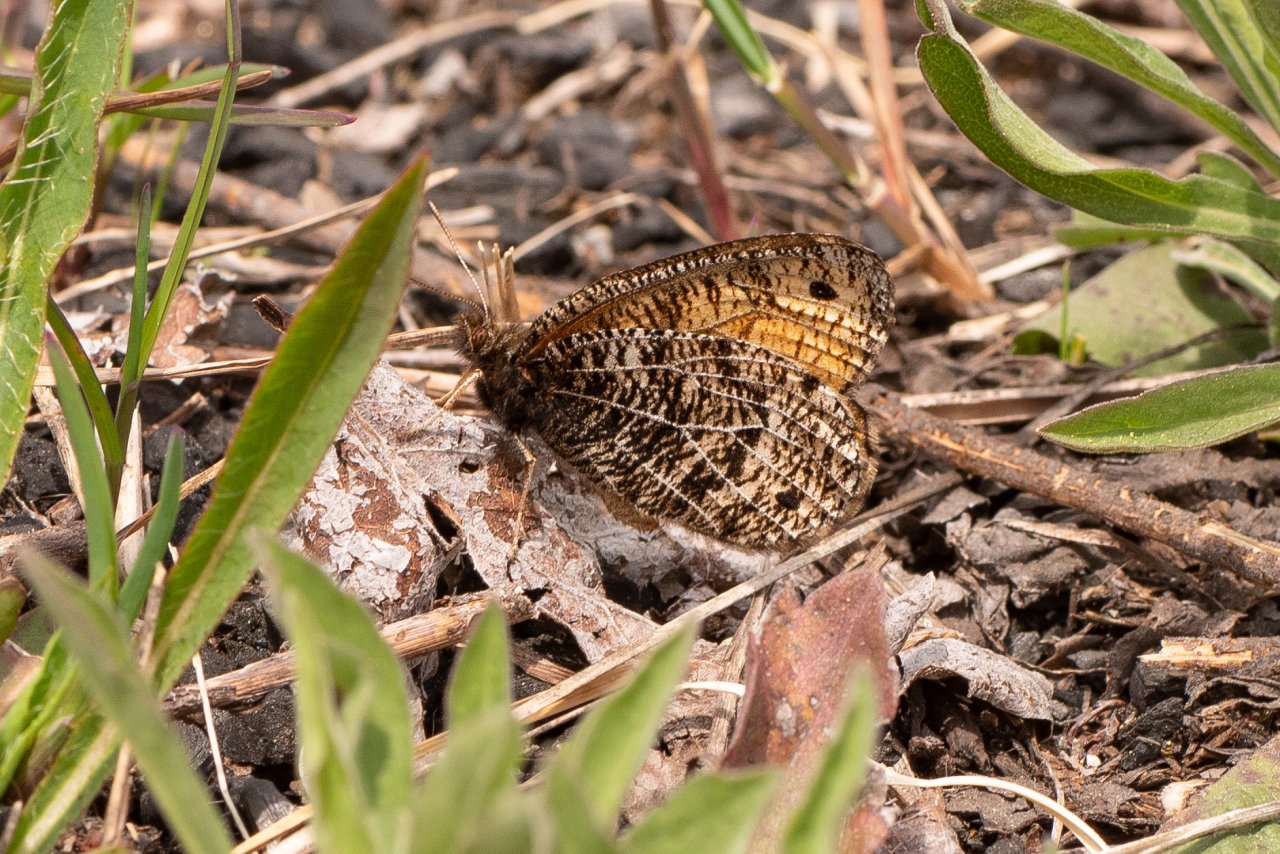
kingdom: Animalia
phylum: Arthropoda
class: Insecta
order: Lepidoptera
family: Nymphalidae
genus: Oeneis
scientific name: Oeneis chryxus
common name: Chryxus Arctic
